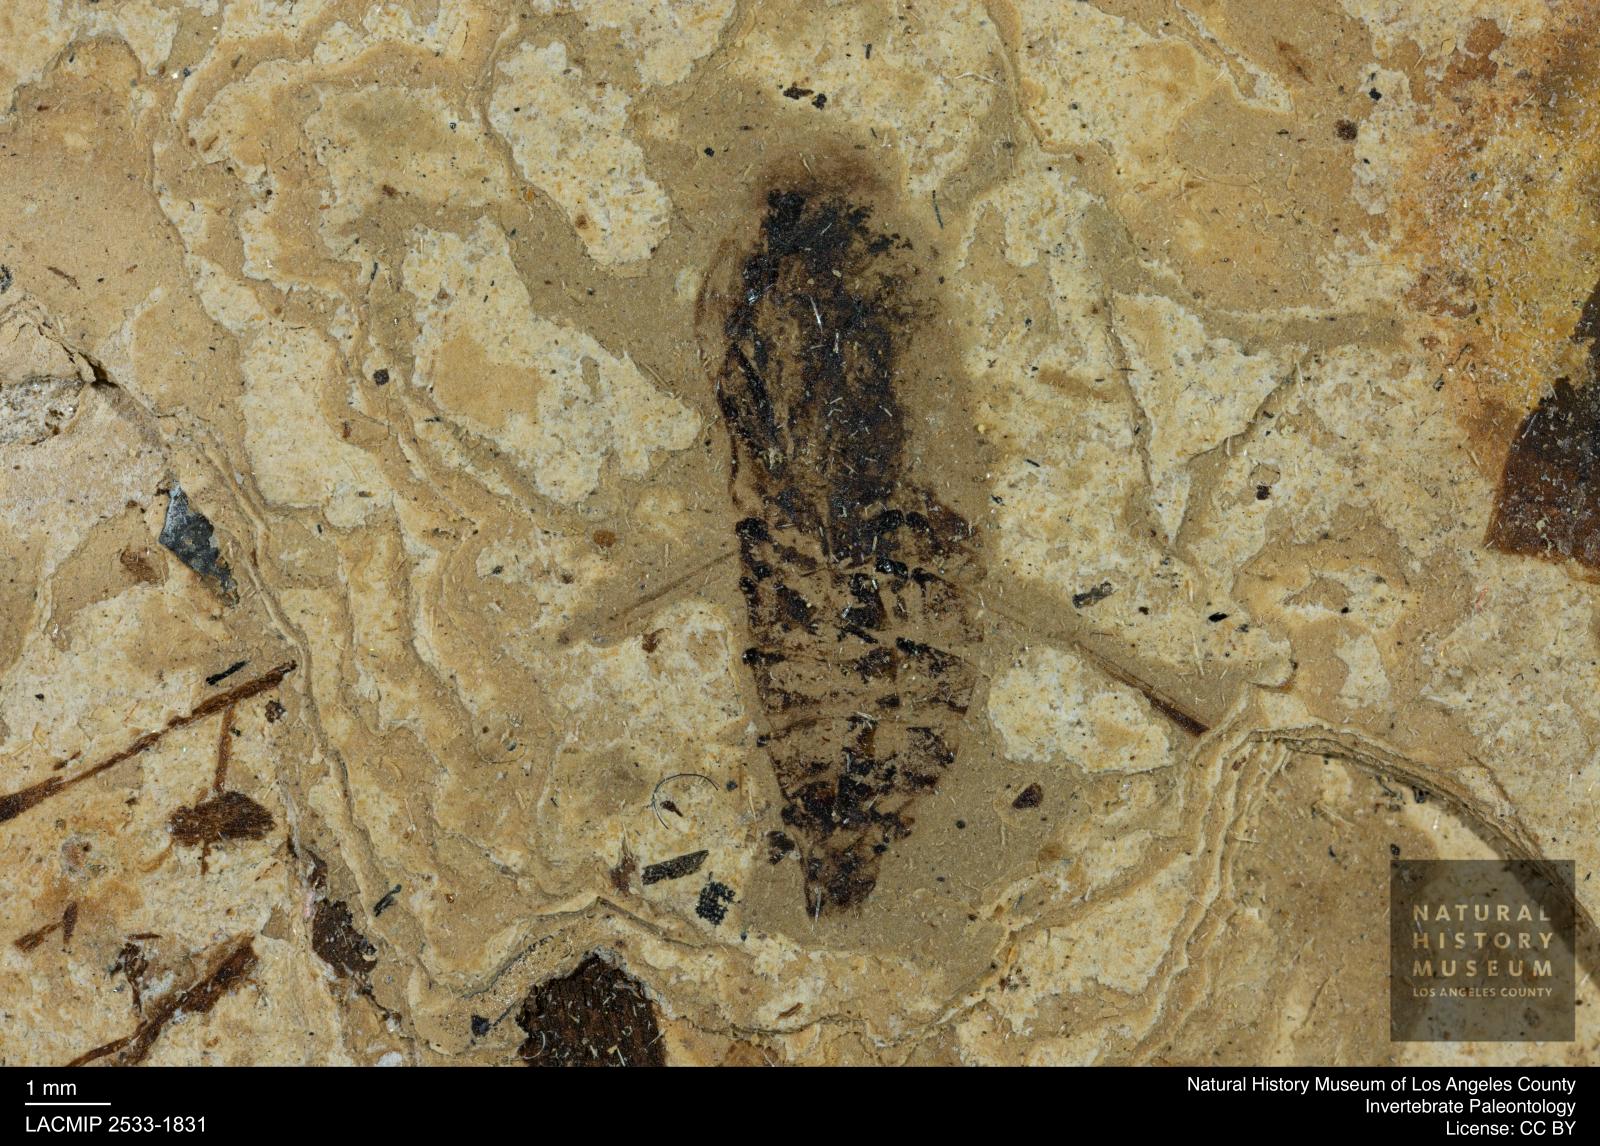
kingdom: Animalia
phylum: Arthropoda
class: Insecta
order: Hemiptera
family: Notonectidae
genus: Notonecta
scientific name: Notonecta
